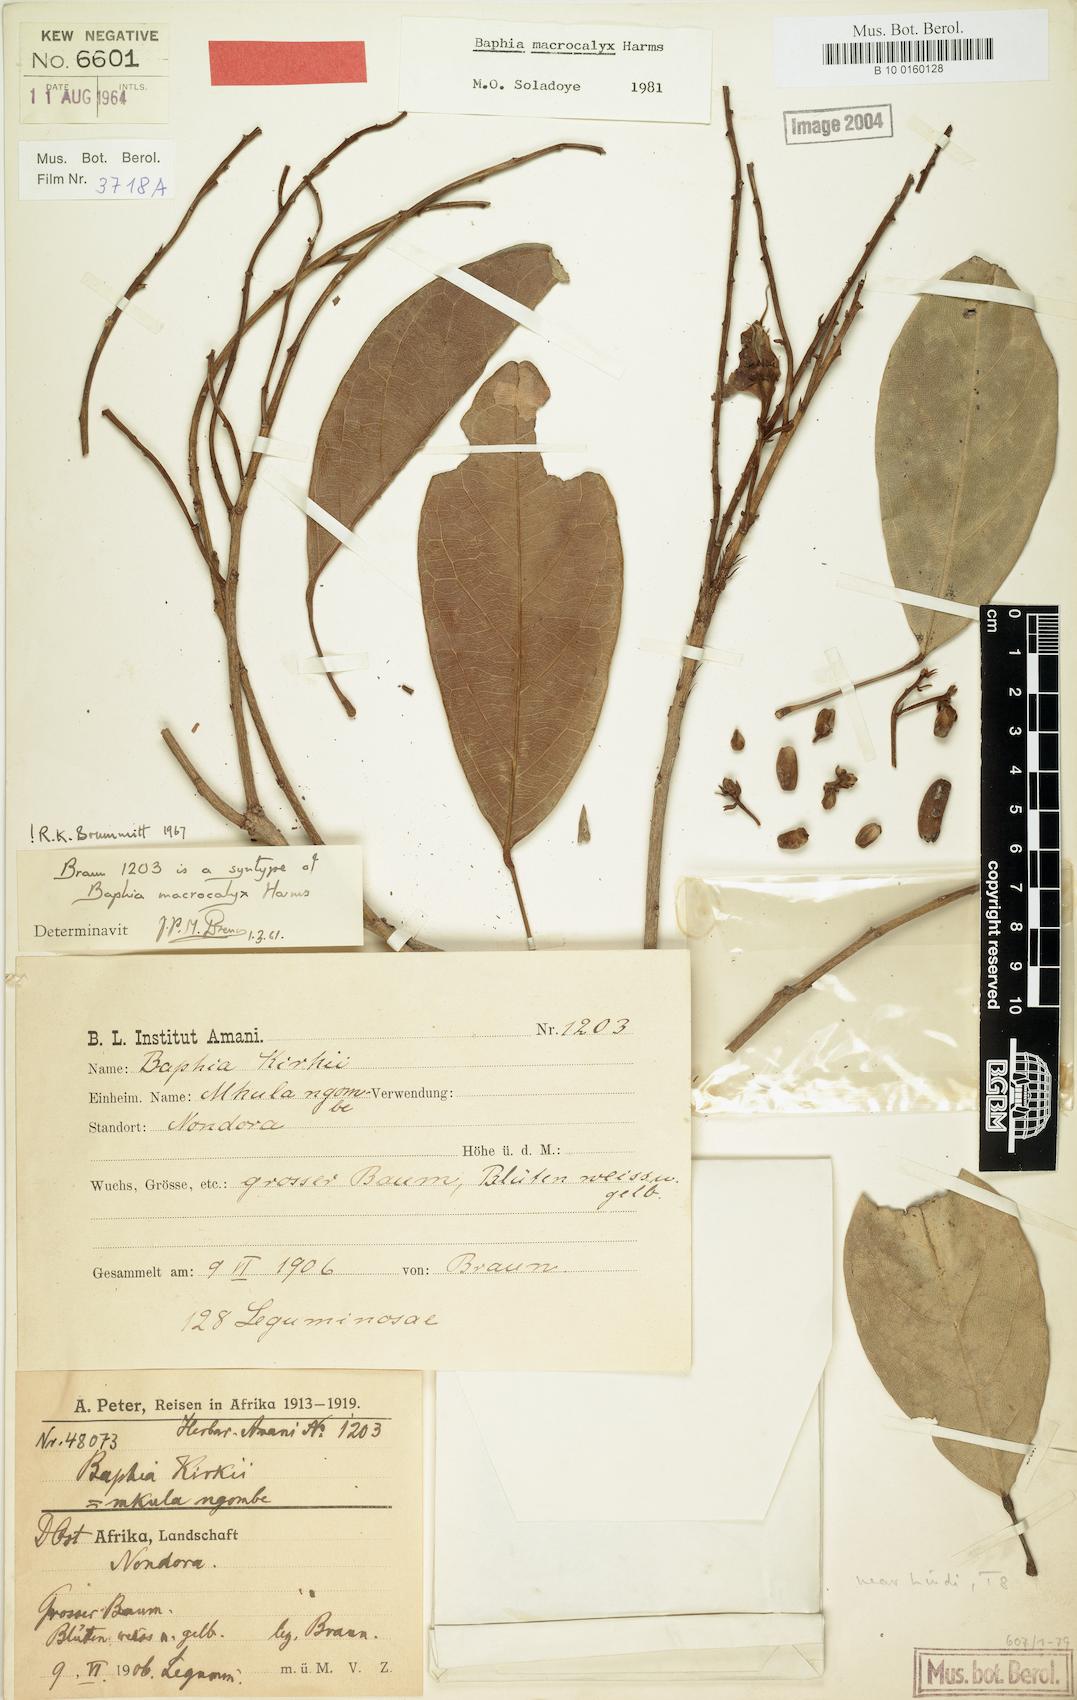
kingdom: Plantae
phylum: Tracheophyta
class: Magnoliopsida
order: Fabales
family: Fabaceae
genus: Baphia
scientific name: Baphia macrocalyx
